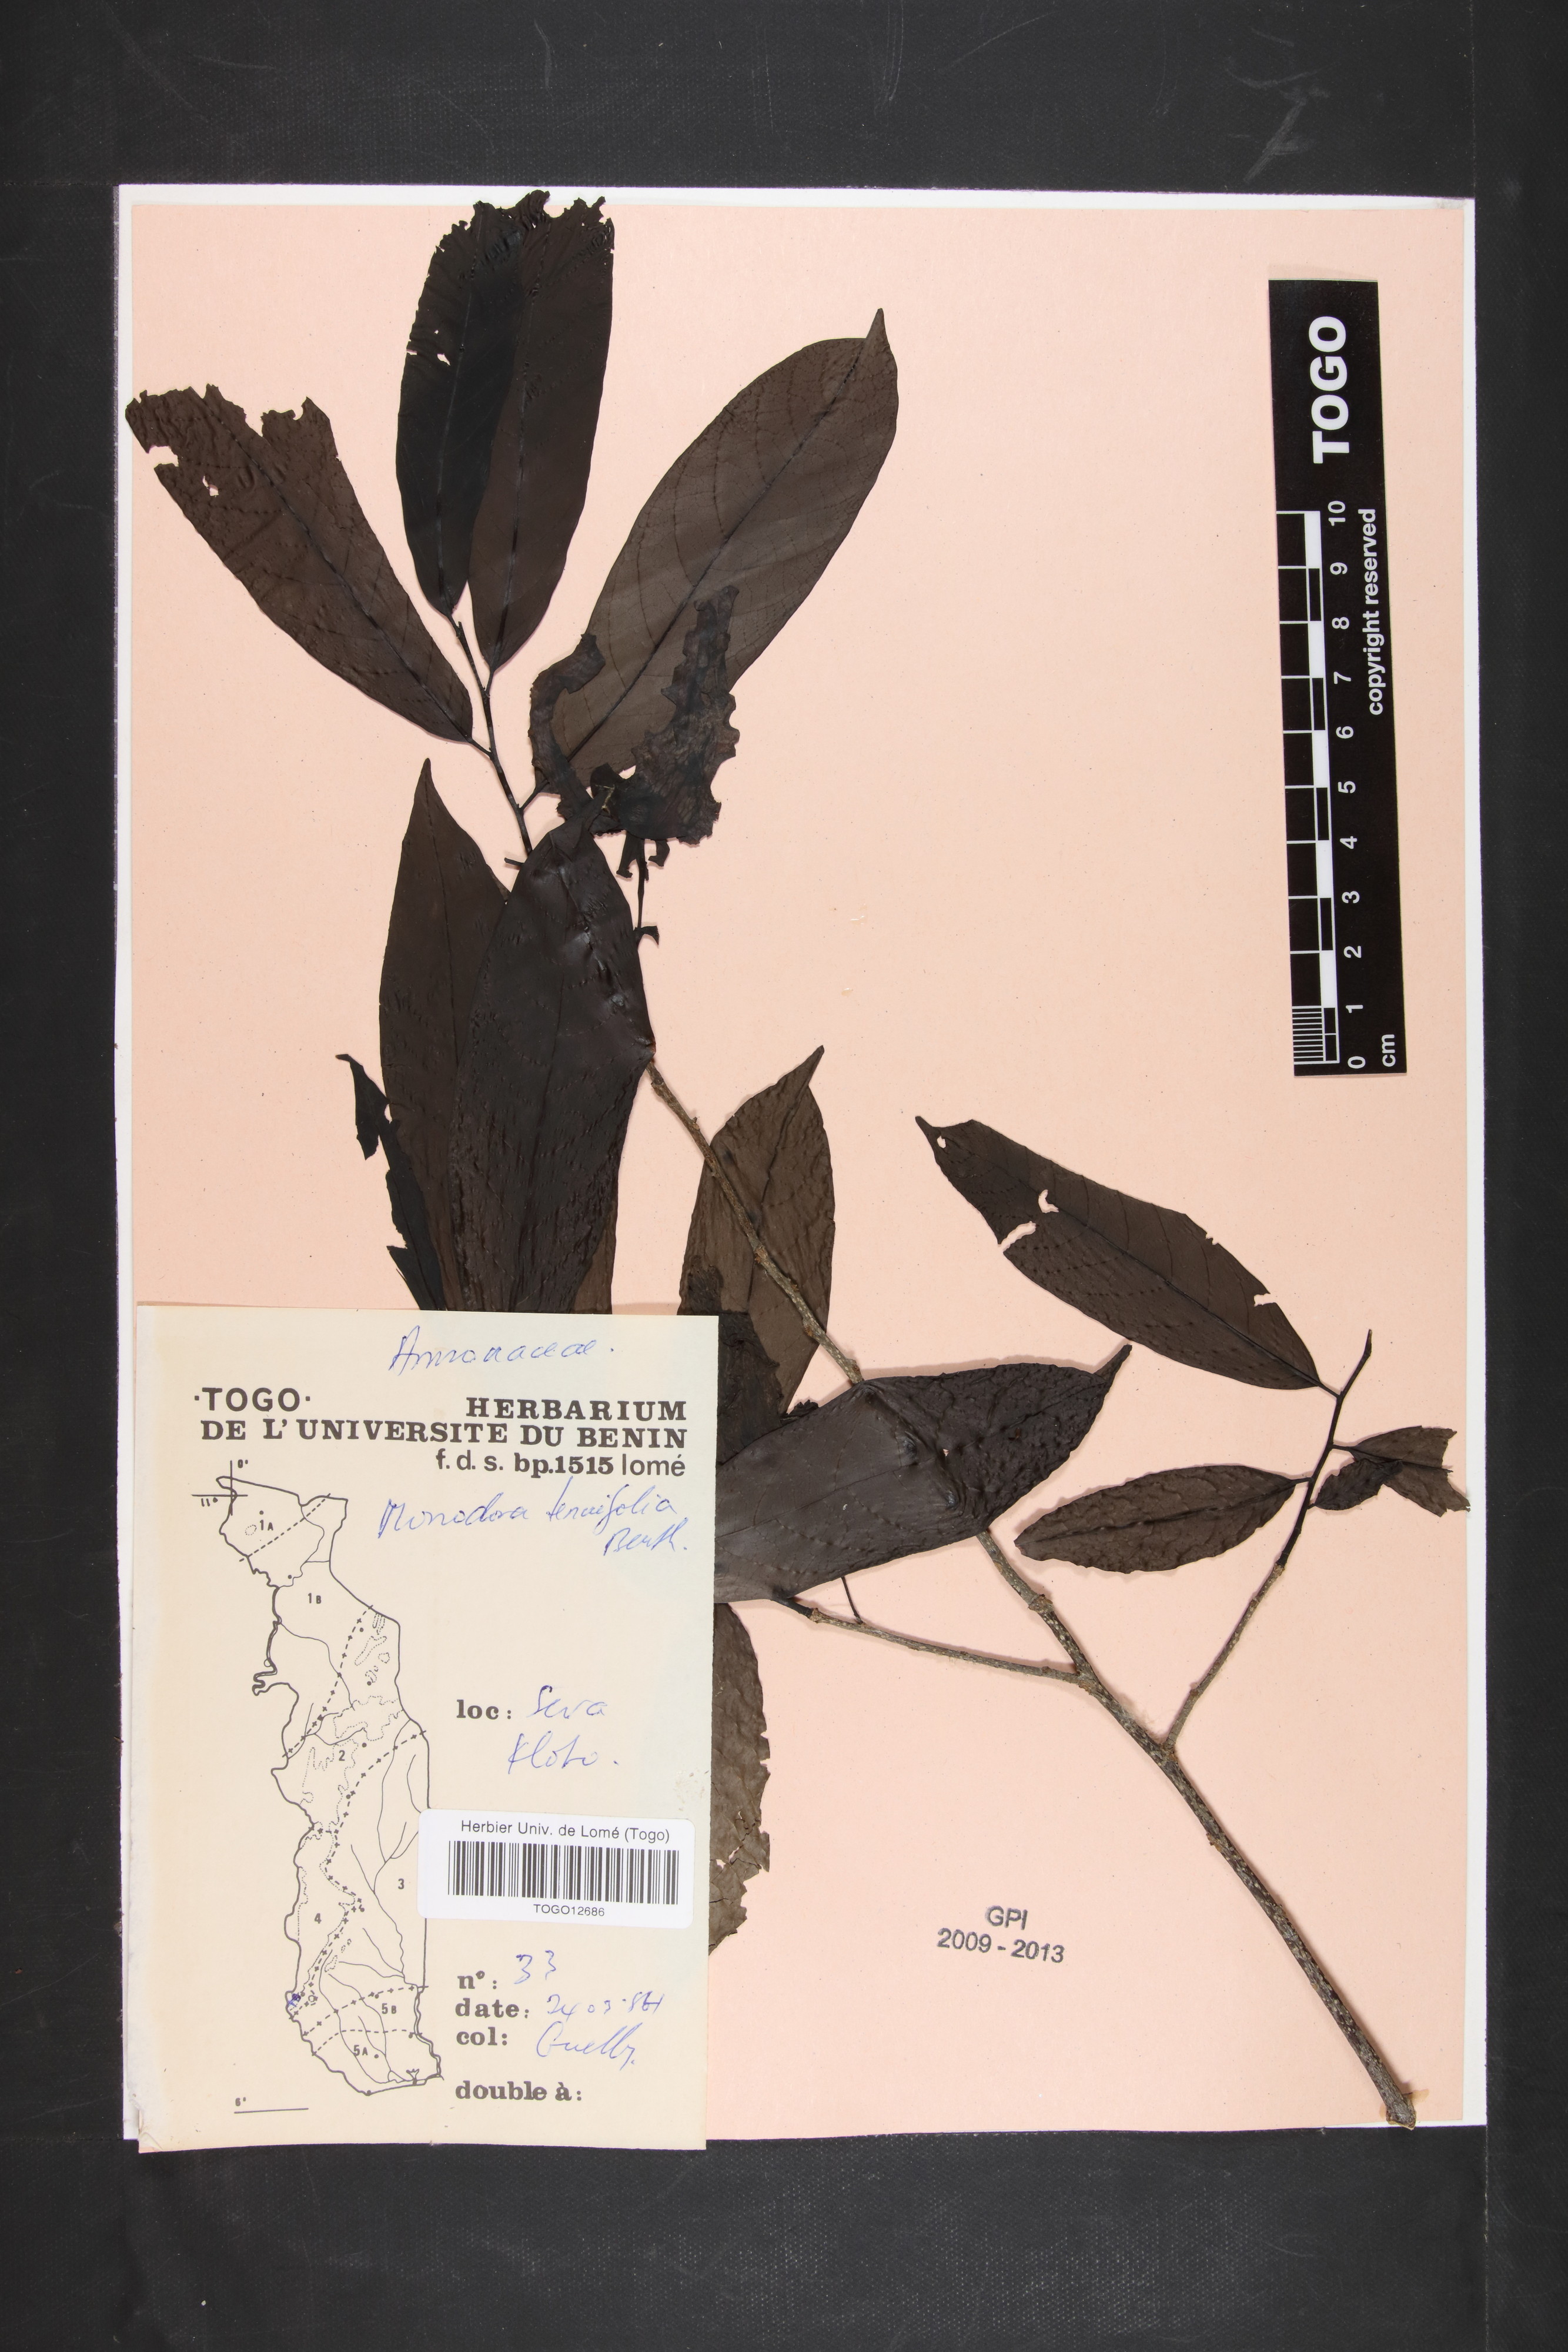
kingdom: Plantae
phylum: Tracheophyta
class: Magnoliopsida
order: Magnoliales
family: Annonaceae
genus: Monodora
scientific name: Monodora tenuifolia
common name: Orchidtree
